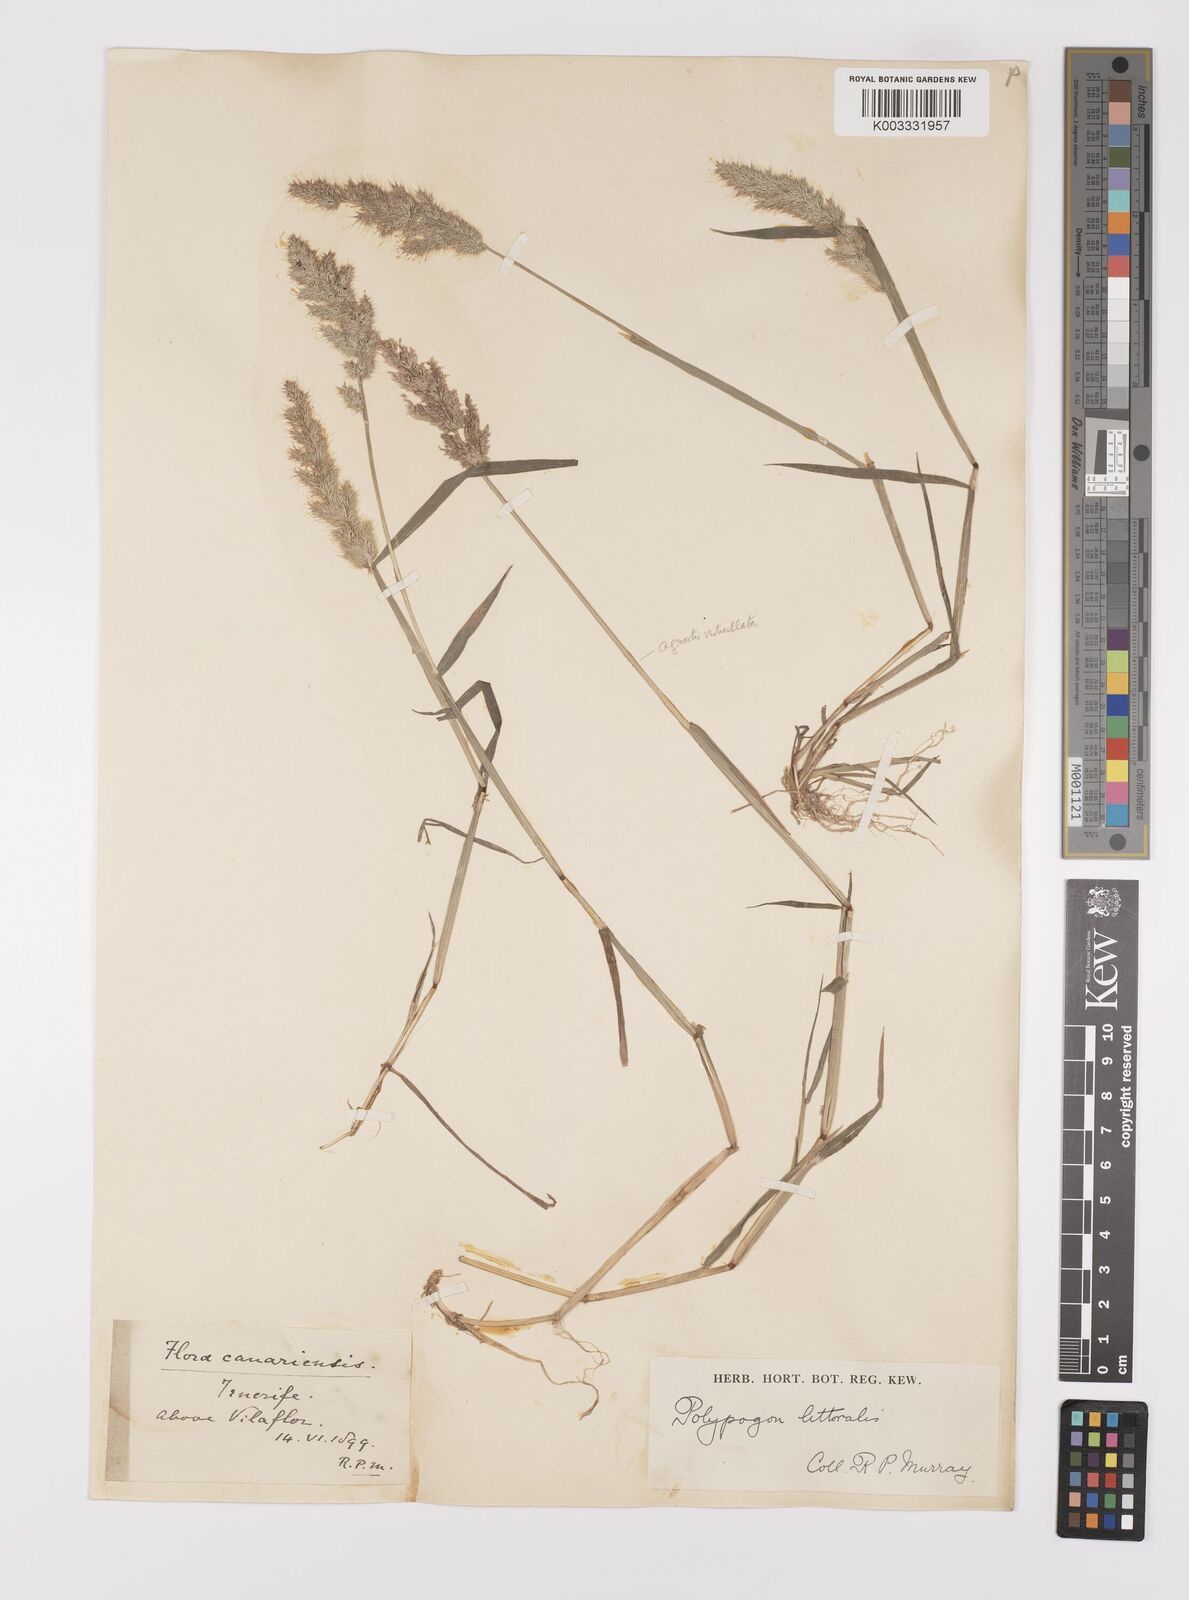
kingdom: Plantae
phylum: Tracheophyta
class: Liliopsida
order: Poales
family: Poaceae
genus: Polypogon
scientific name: Polypogon fugax
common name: Asia minor bluegrass
